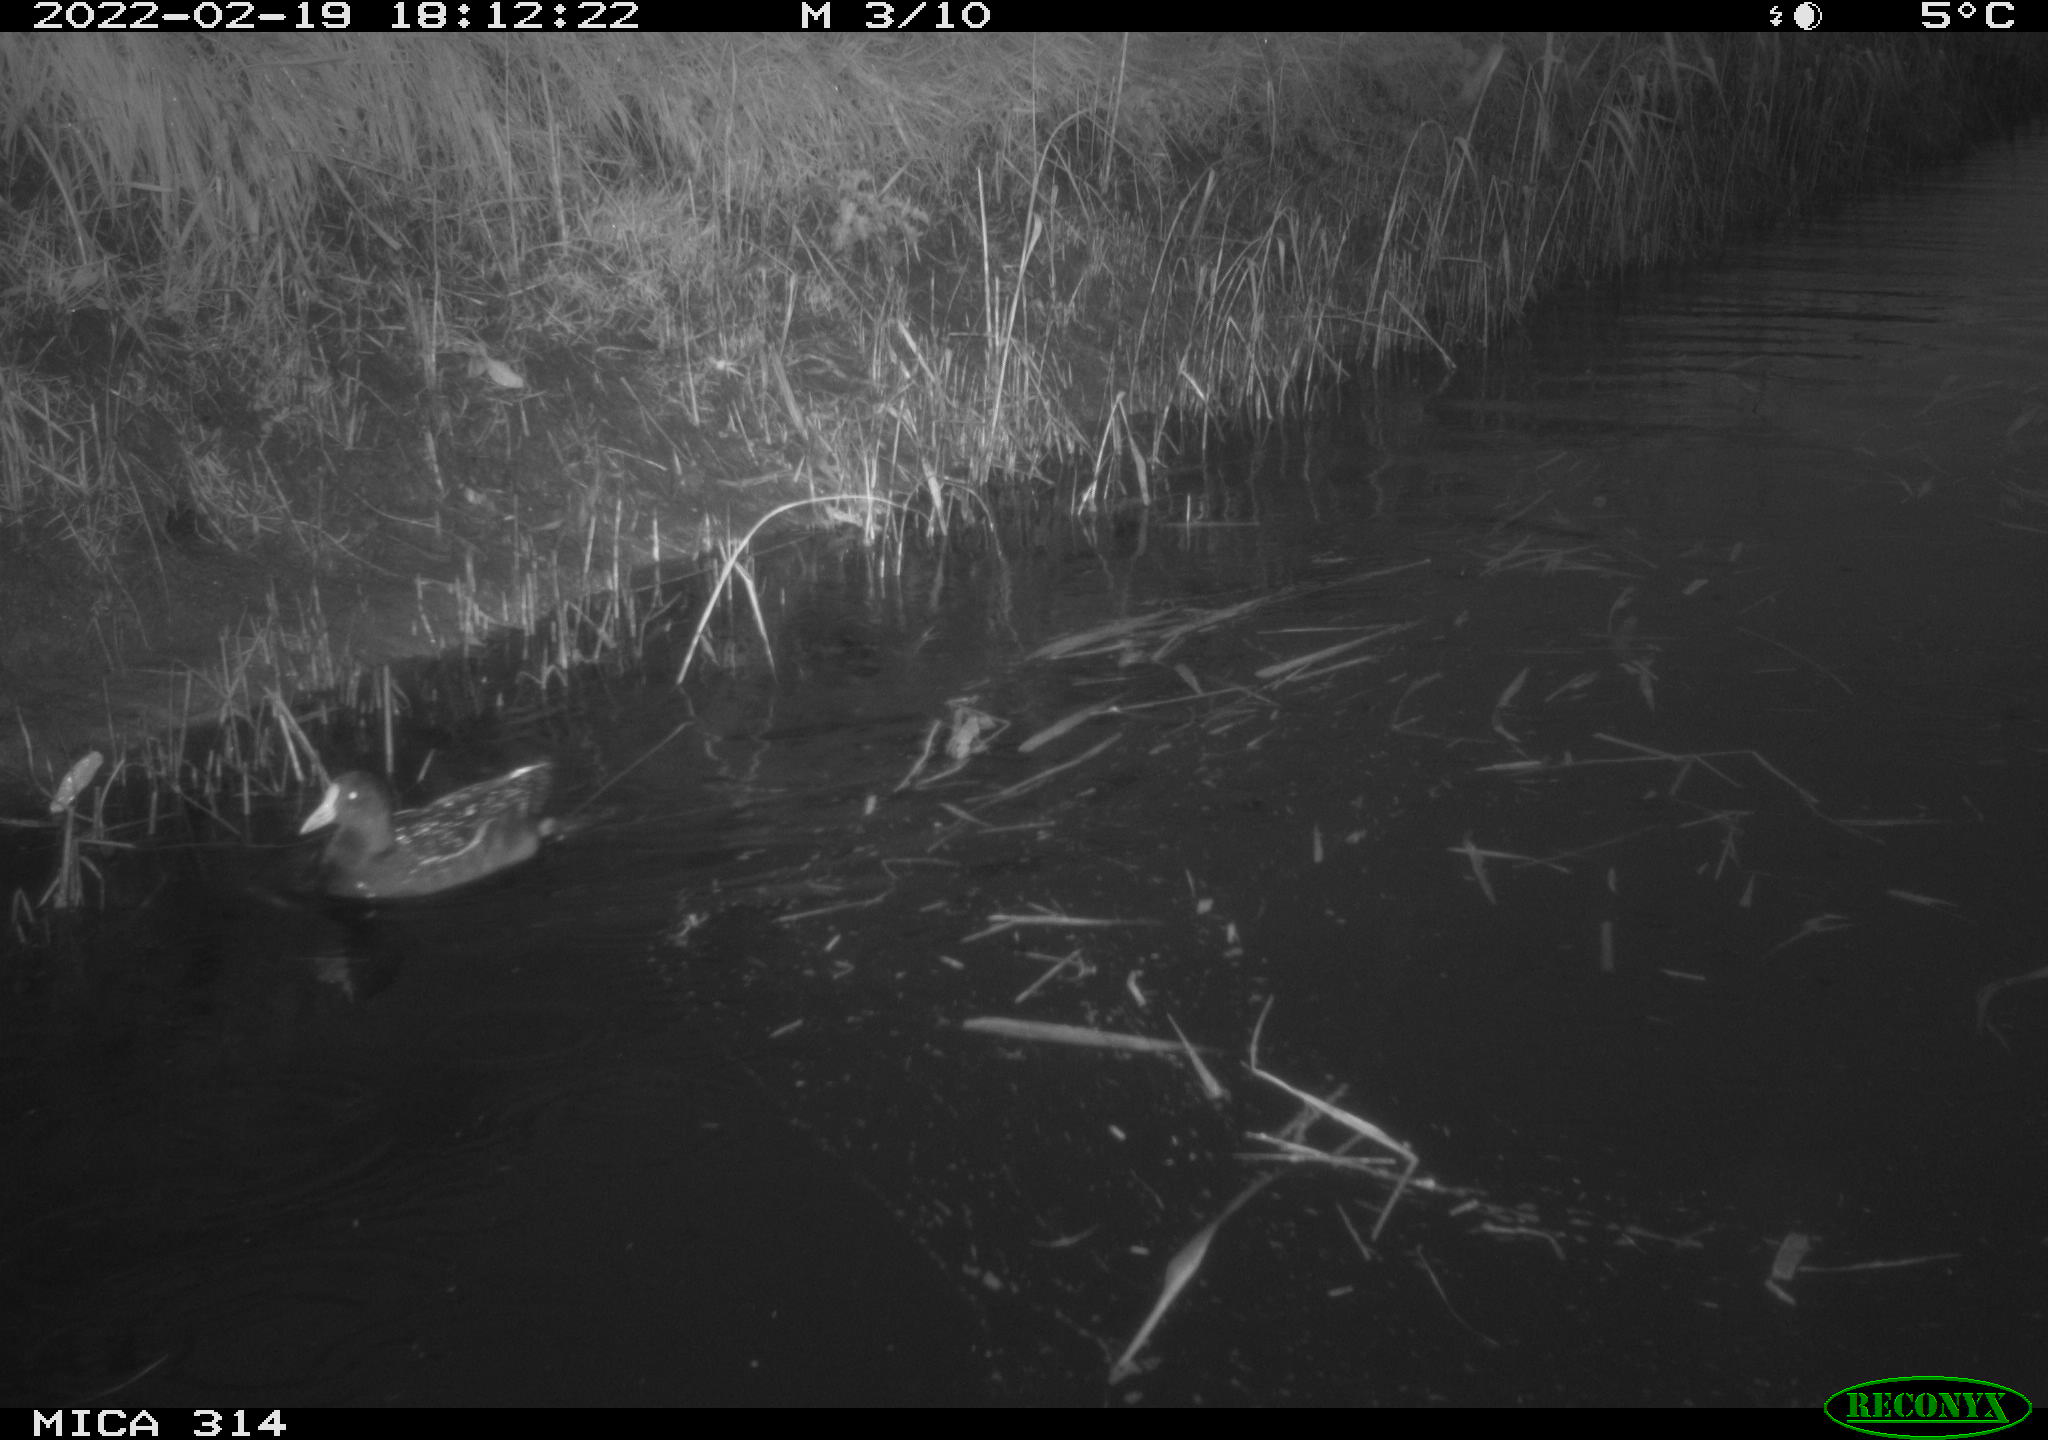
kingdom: Animalia
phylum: Chordata
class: Aves
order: Gruiformes
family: Rallidae
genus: Gallinula
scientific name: Gallinula chloropus
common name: Common moorhen
